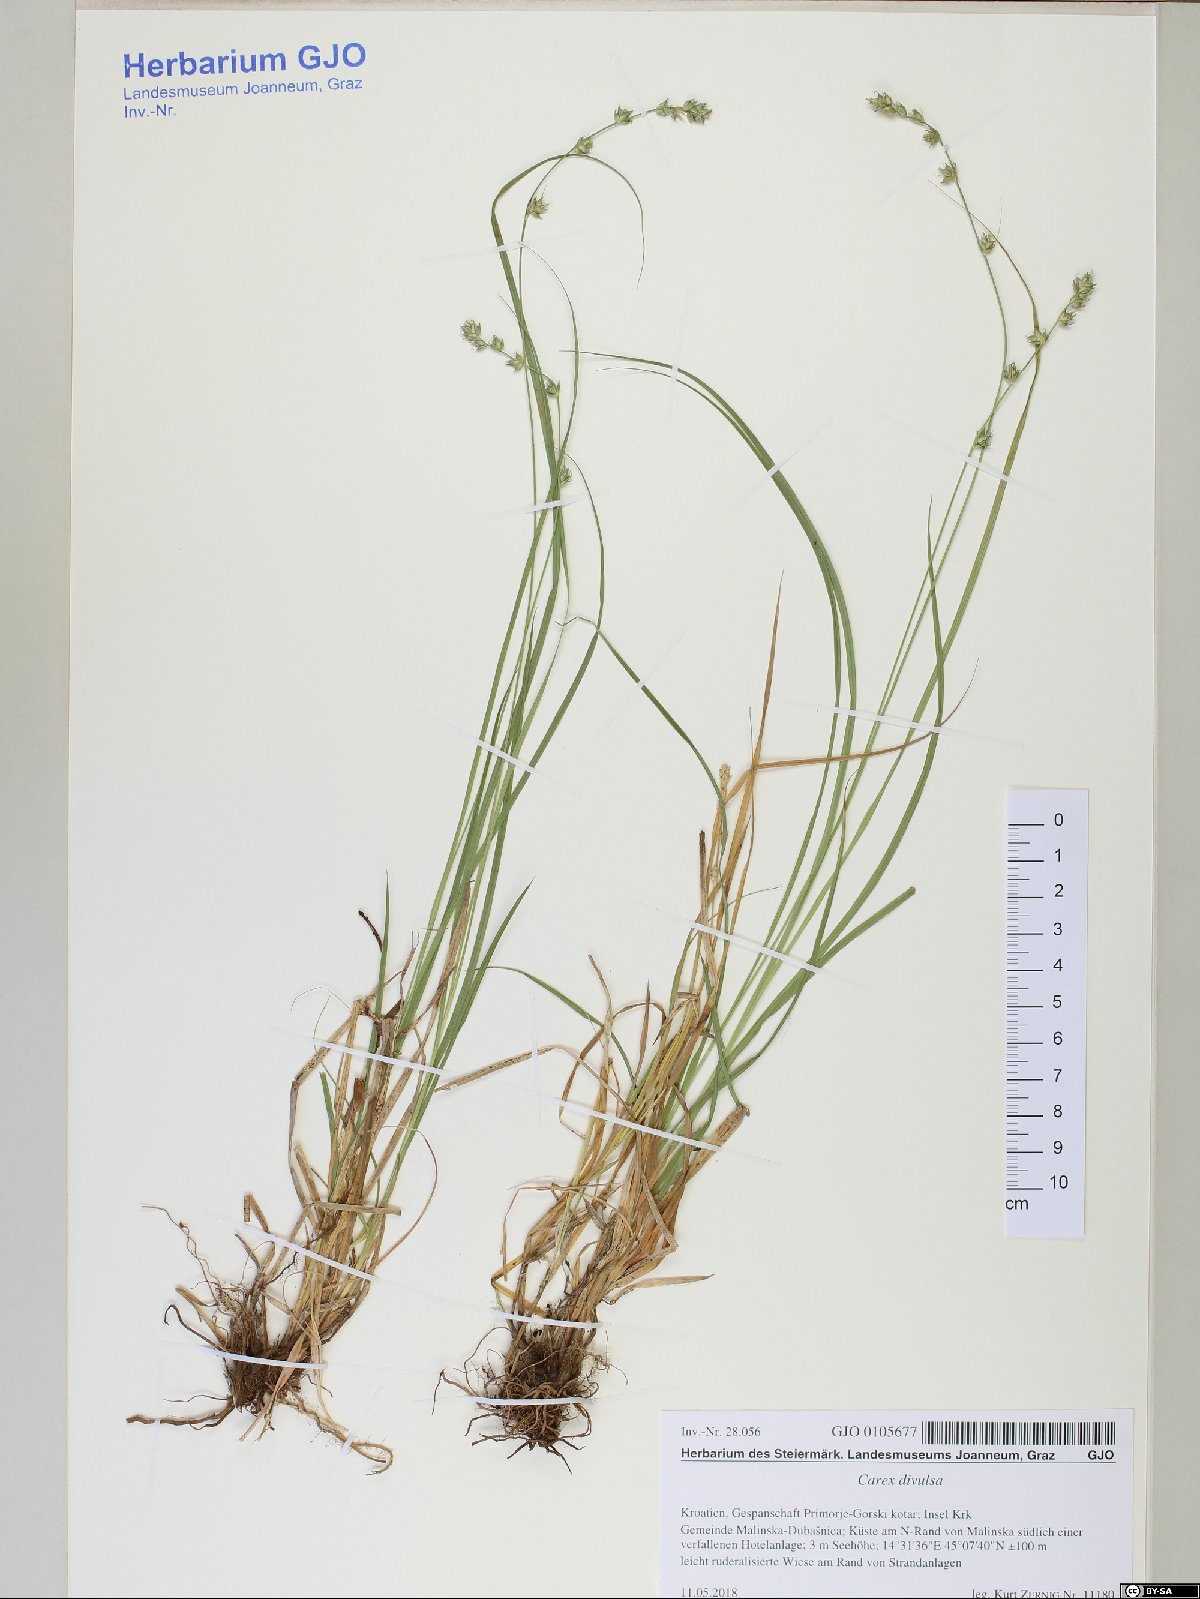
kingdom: Plantae
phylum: Tracheophyta
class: Liliopsida
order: Poales
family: Cyperaceae
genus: Carex
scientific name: Carex divulsa
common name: Grassland sedge
